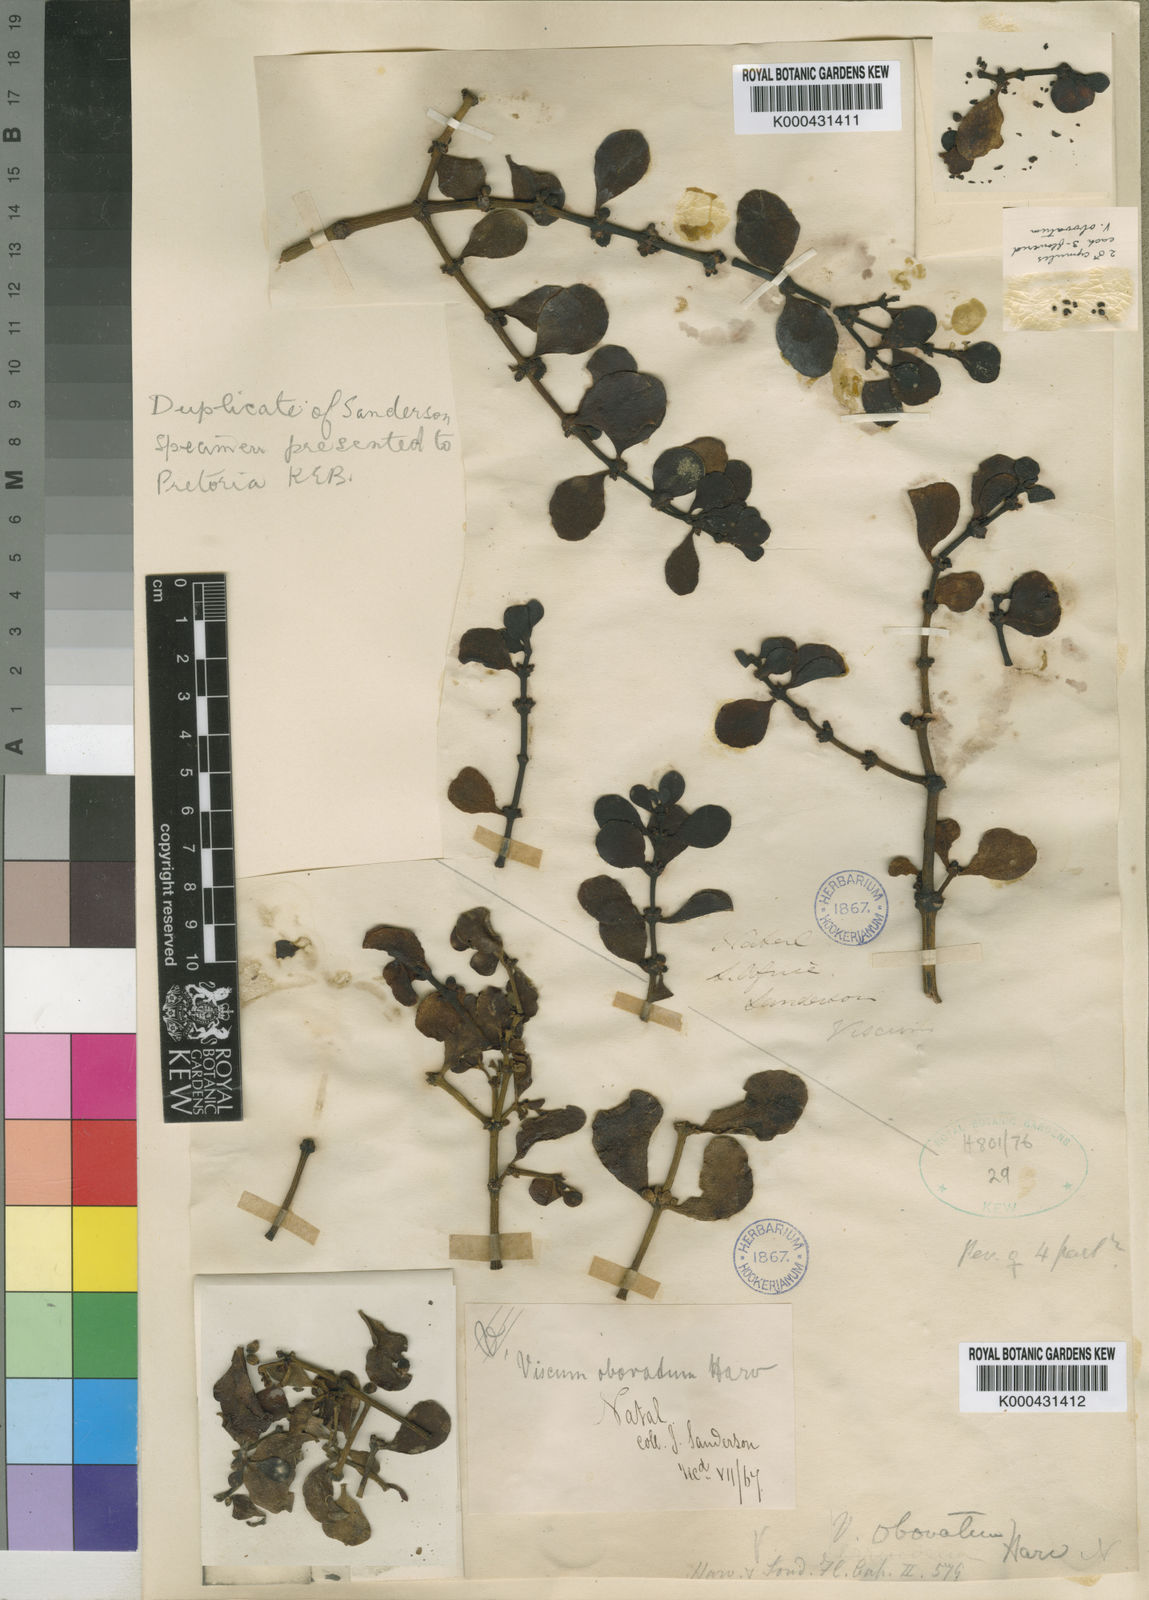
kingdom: Plantae
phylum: Tracheophyta
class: Magnoliopsida
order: Santalales
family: Viscaceae
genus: Viscum
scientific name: Viscum obovatum
